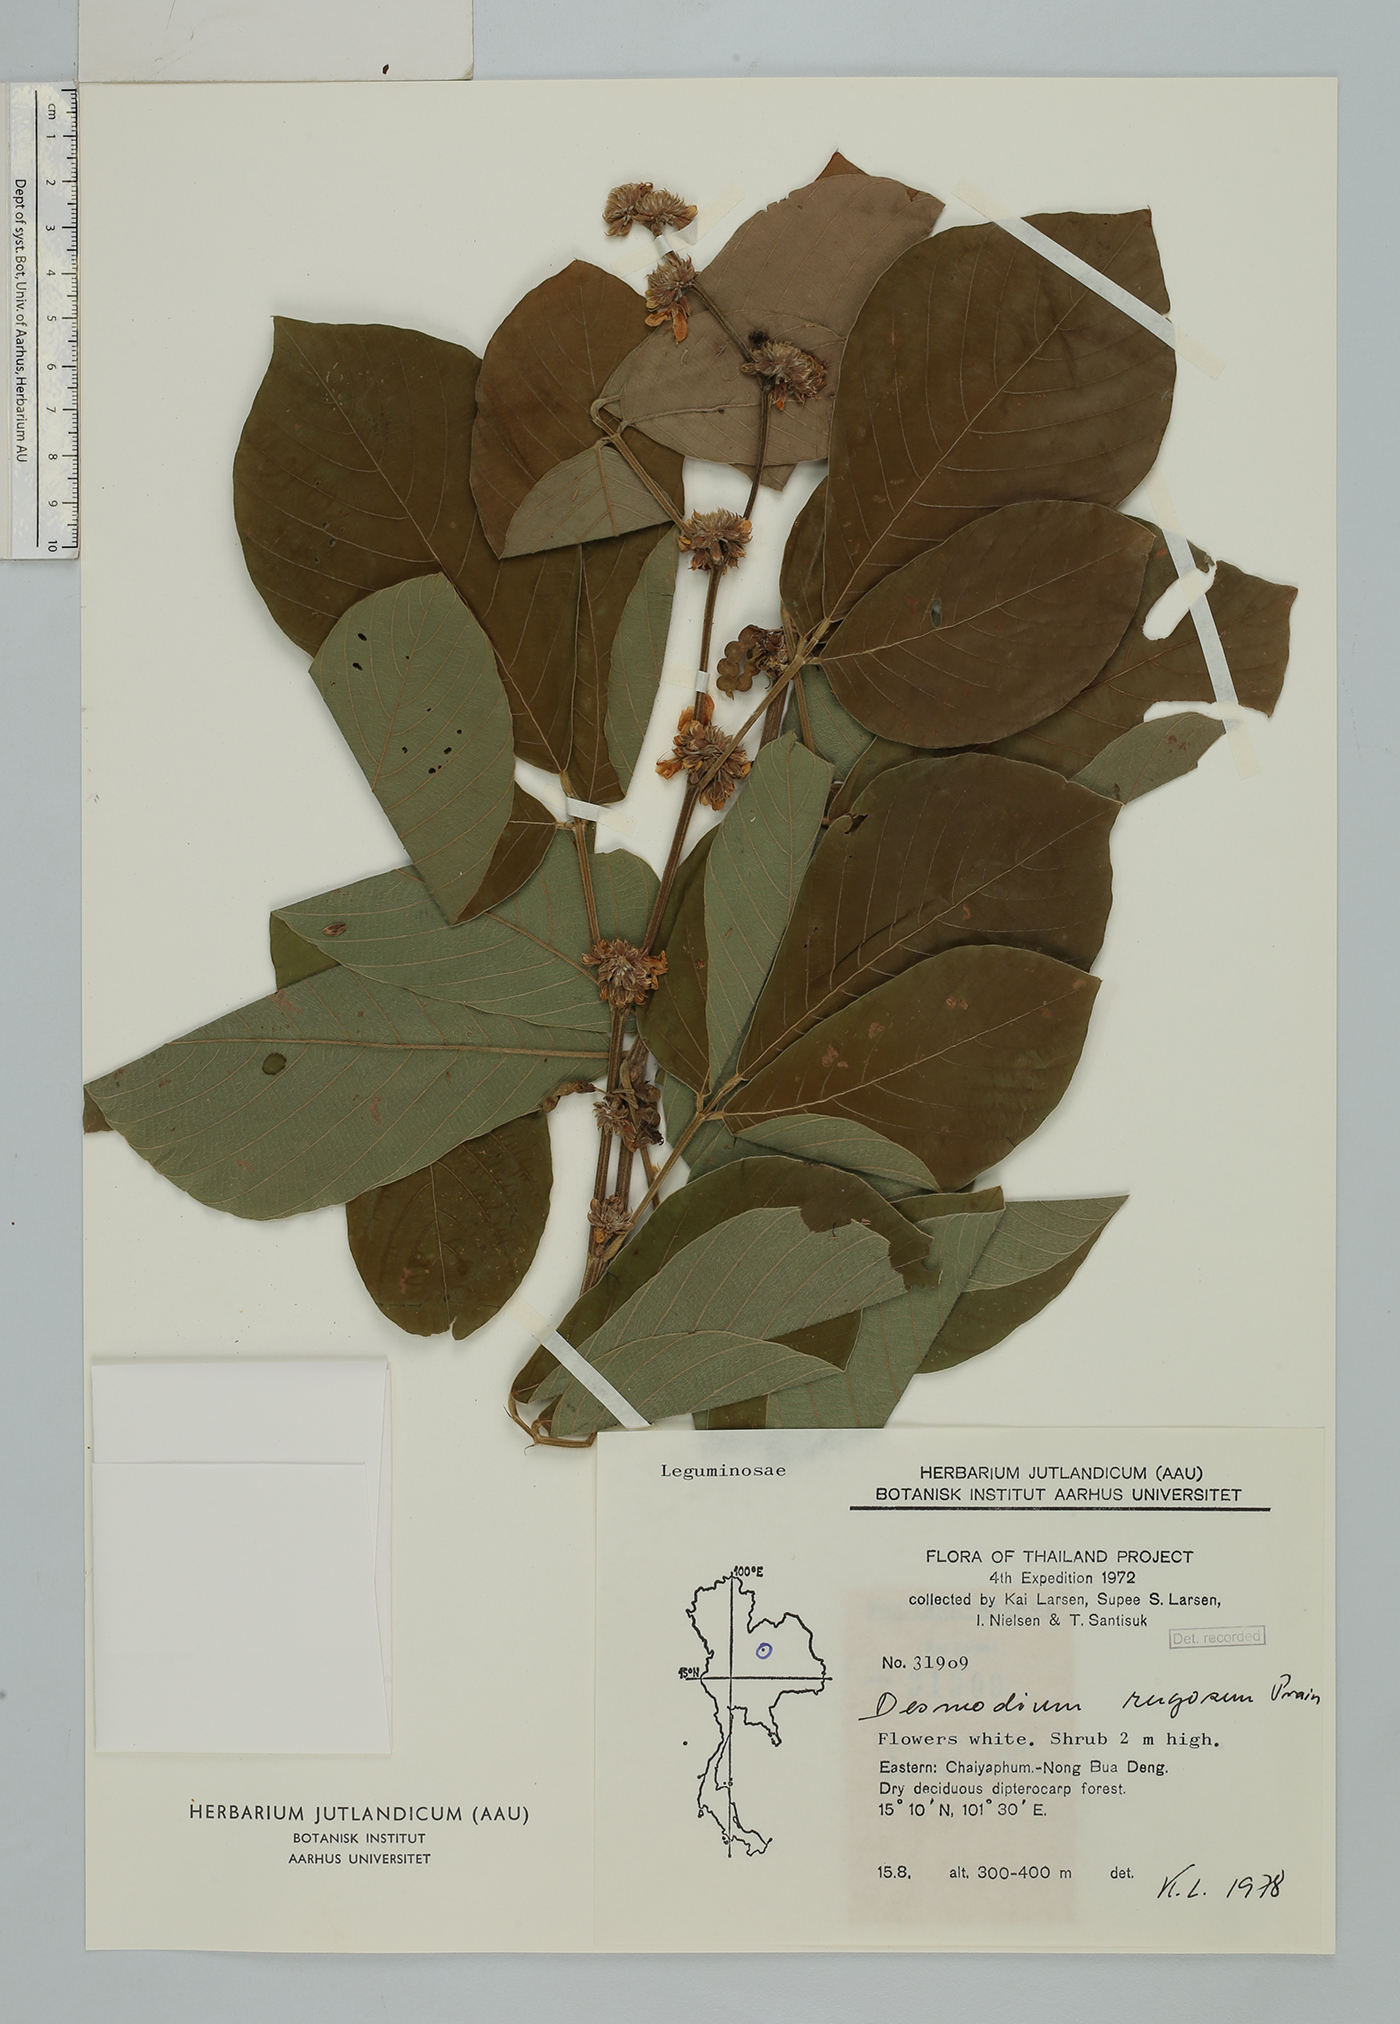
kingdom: Plantae
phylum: Tracheophyta
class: Magnoliopsida
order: Fabales
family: Fabaceae
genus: Dendrolobium
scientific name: Dendrolobium rugosum
